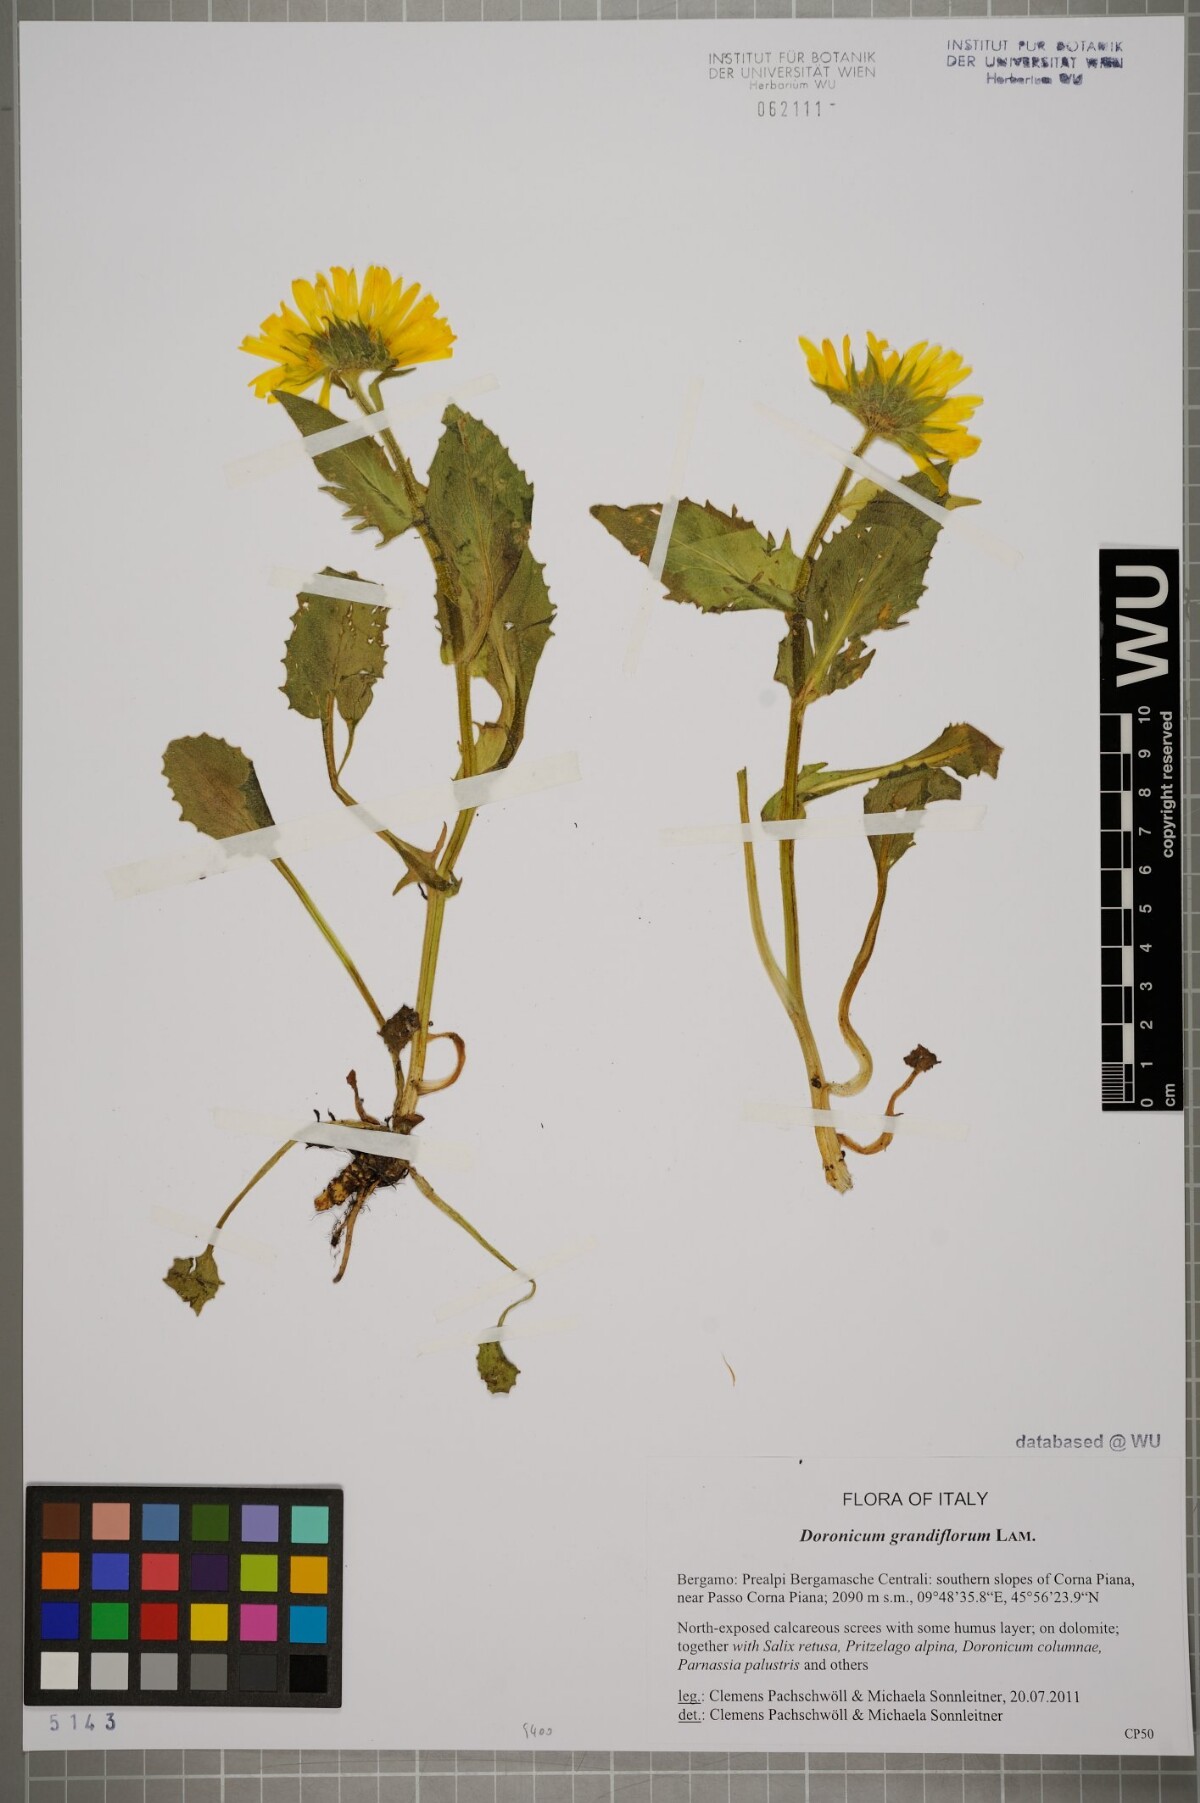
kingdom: Plantae
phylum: Tracheophyta
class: Magnoliopsida
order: Asterales
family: Asteraceae
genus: Doronicum
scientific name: Doronicum grandiflorum
